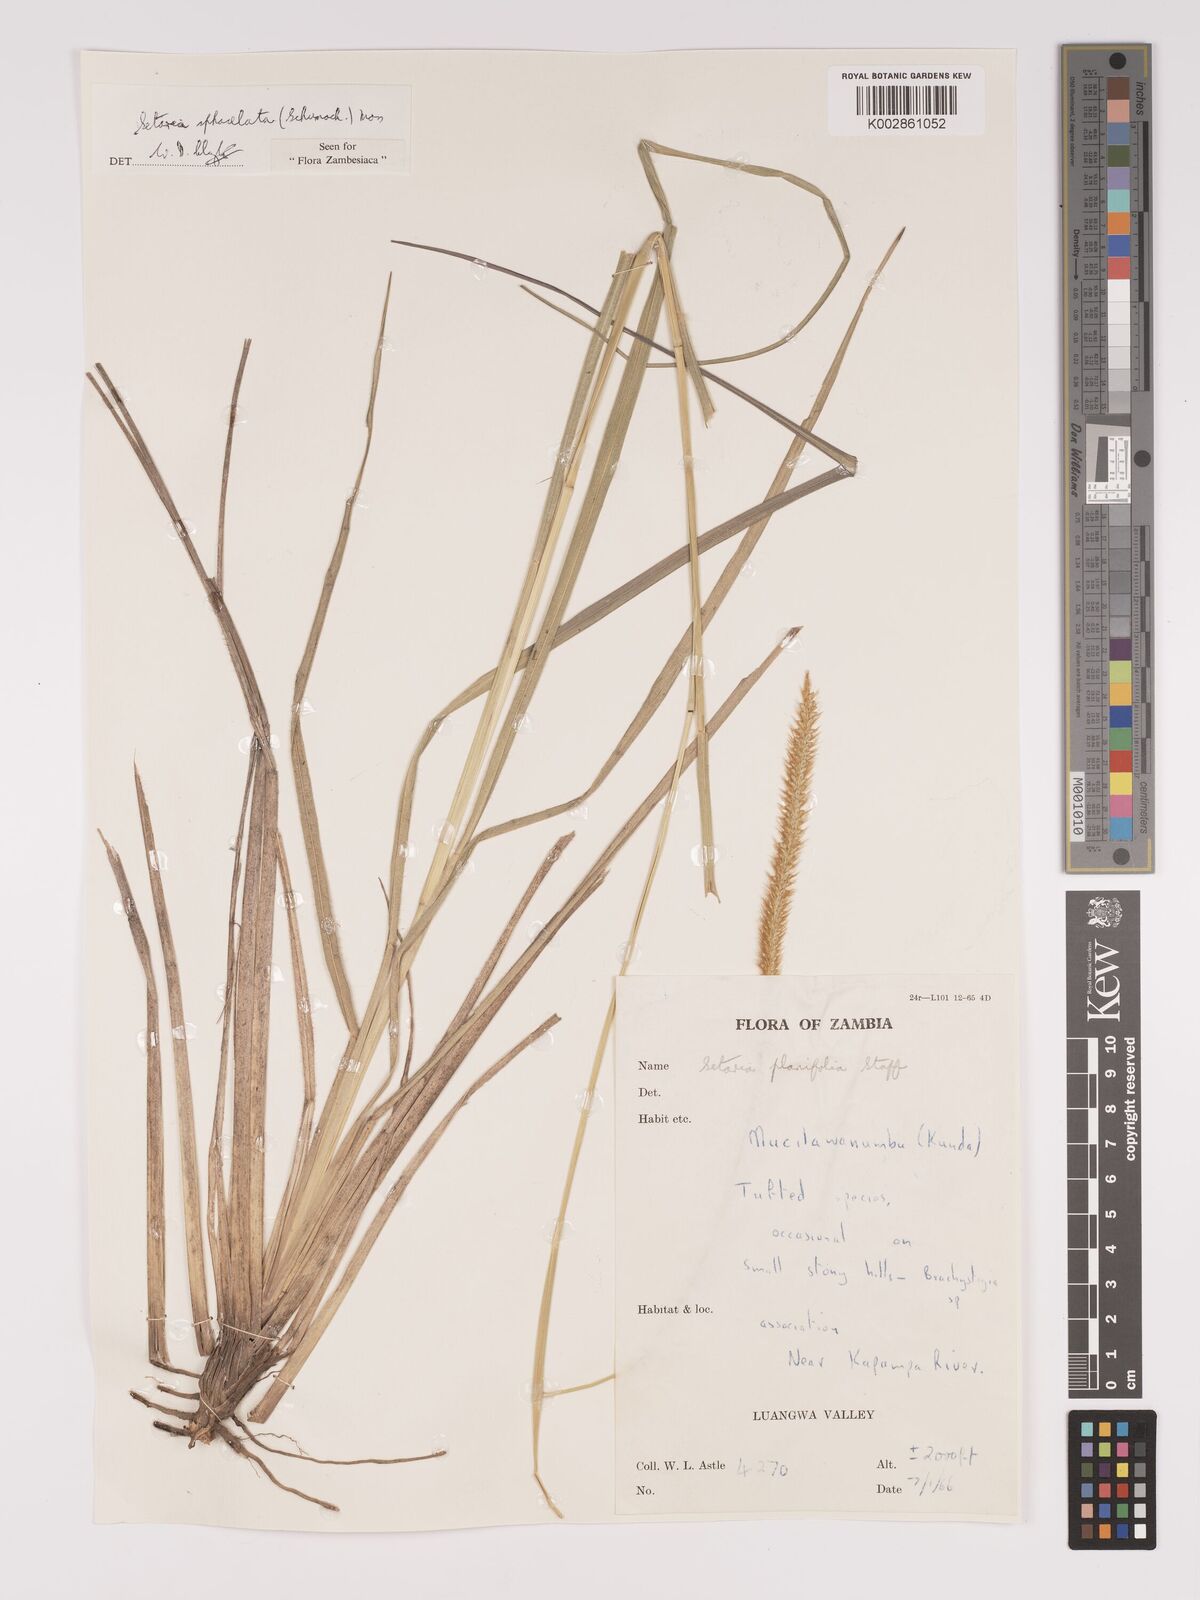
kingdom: Plantae
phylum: Tracheophyta
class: Liliopsida
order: Poales
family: Poaceae
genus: Setaria
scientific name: Setaria sphacelata
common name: African bristlegrass
